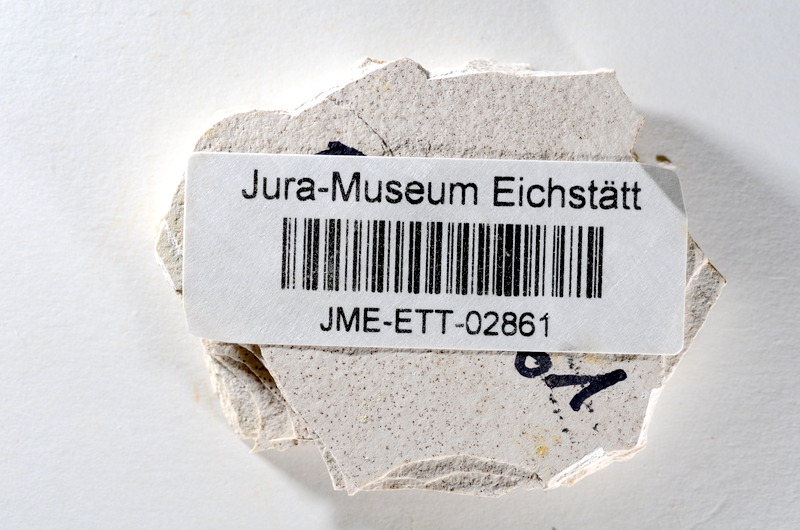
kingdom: Animalia
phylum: Chordata
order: Salmoniformes
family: Orthogonikleithridae
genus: Orthogonikleithrus
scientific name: Orthogonikleithrus hoelli
